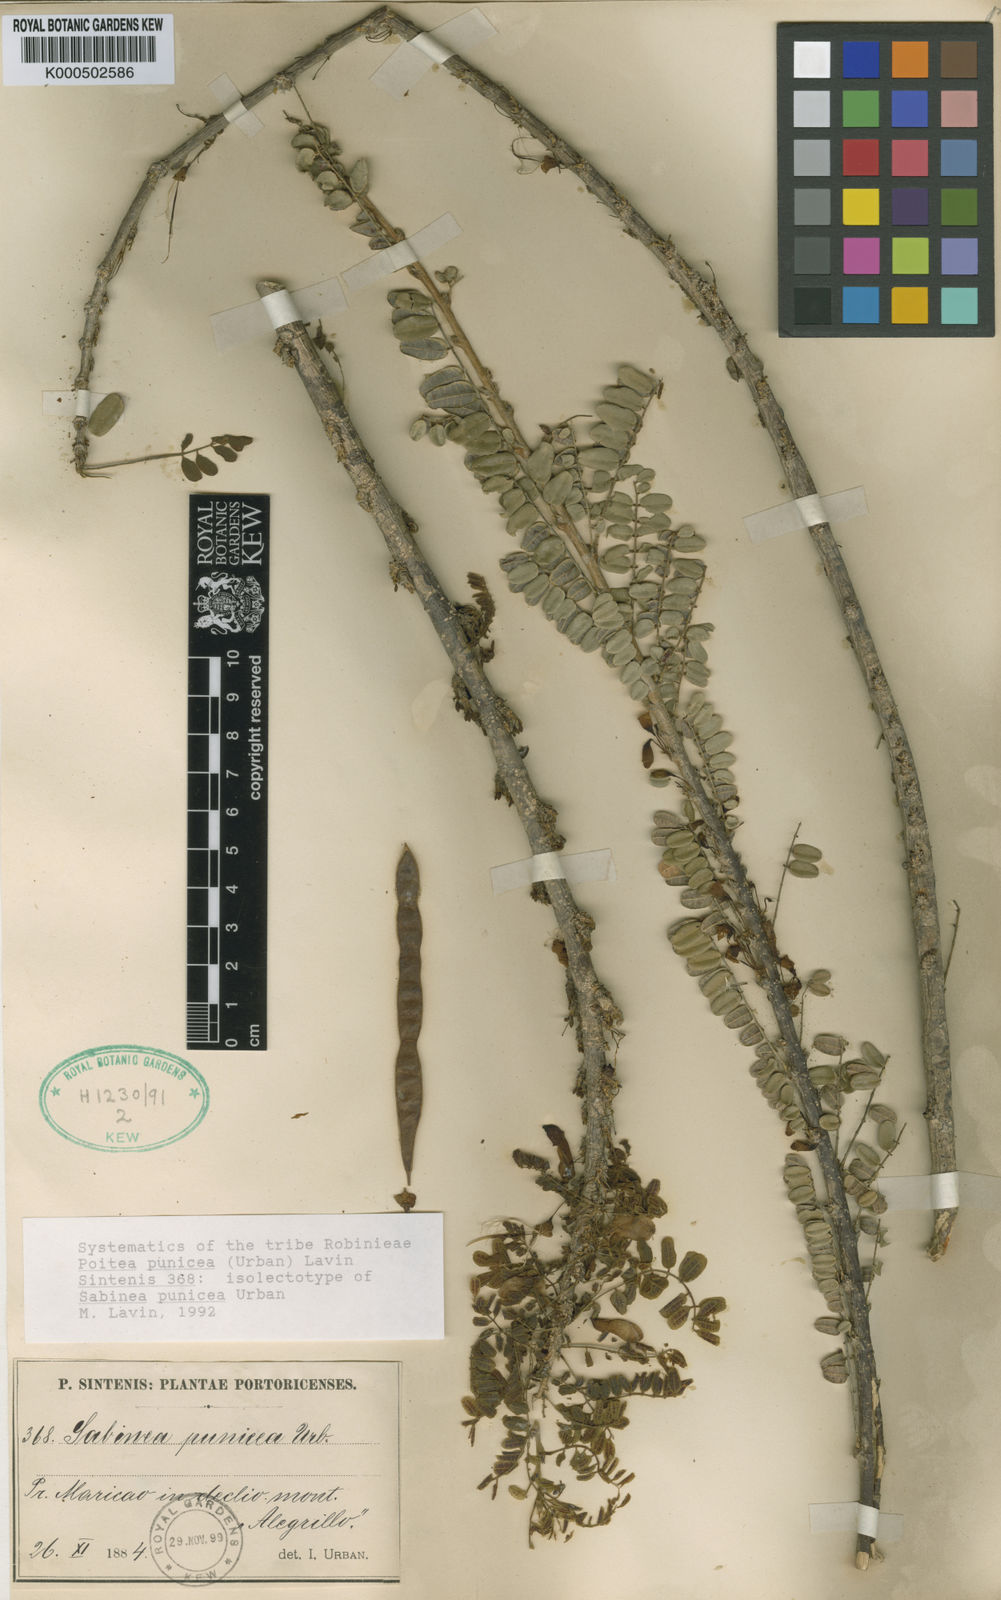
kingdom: Plantae
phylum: Tracheophyta
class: Magnoliopsida
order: Fabales
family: Fabaceae
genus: Poitea
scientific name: Poitea punicea
